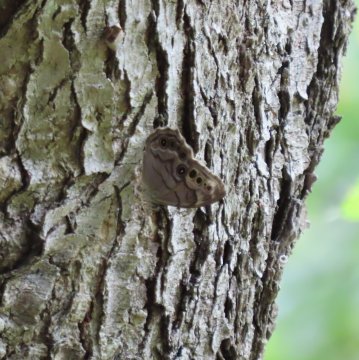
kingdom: Animalia
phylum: Arthropoda
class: Insecta
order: Lepidoptera
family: Nymphalidae
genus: Lethe
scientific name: Lethe anthedon
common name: Northern Pearly-Eye
